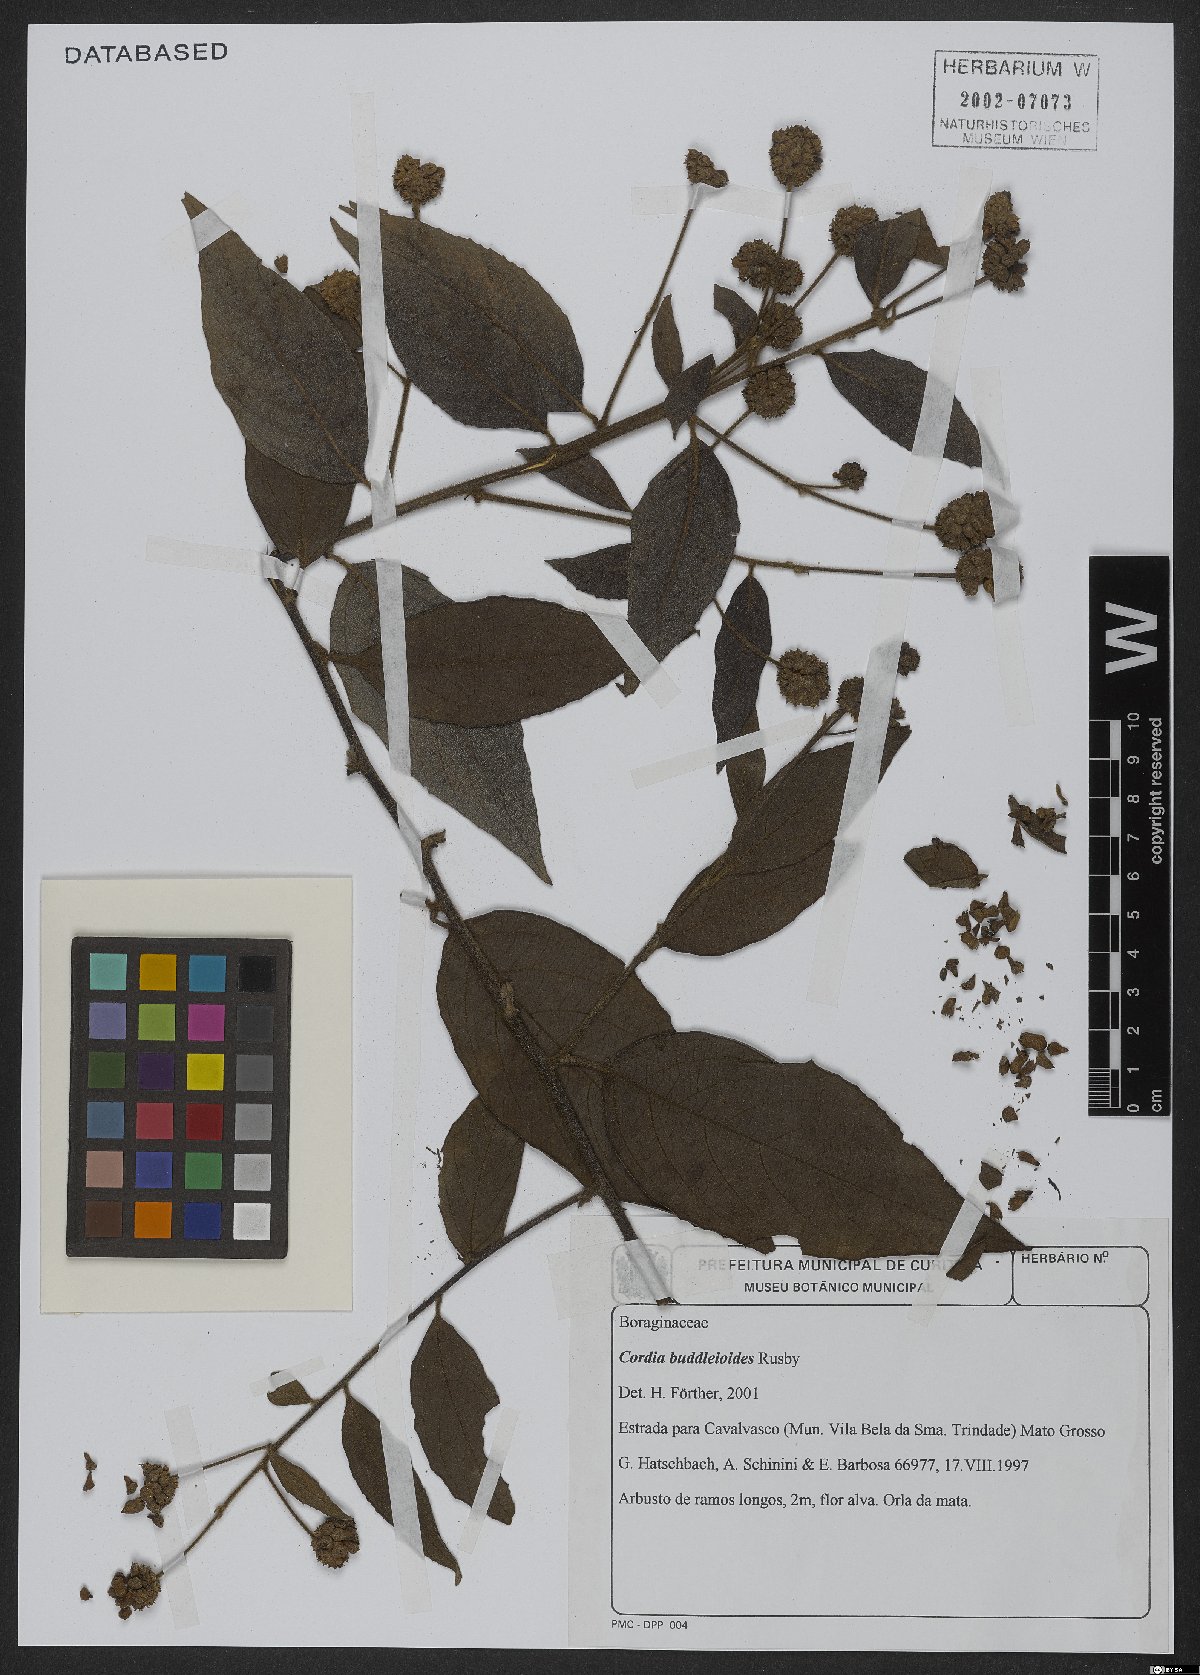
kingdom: Plantae
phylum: Tracheophyta
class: Magnoliopsida
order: Boraginales
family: Cordiaceae
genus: Varronia
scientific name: Varronia buddleoides
